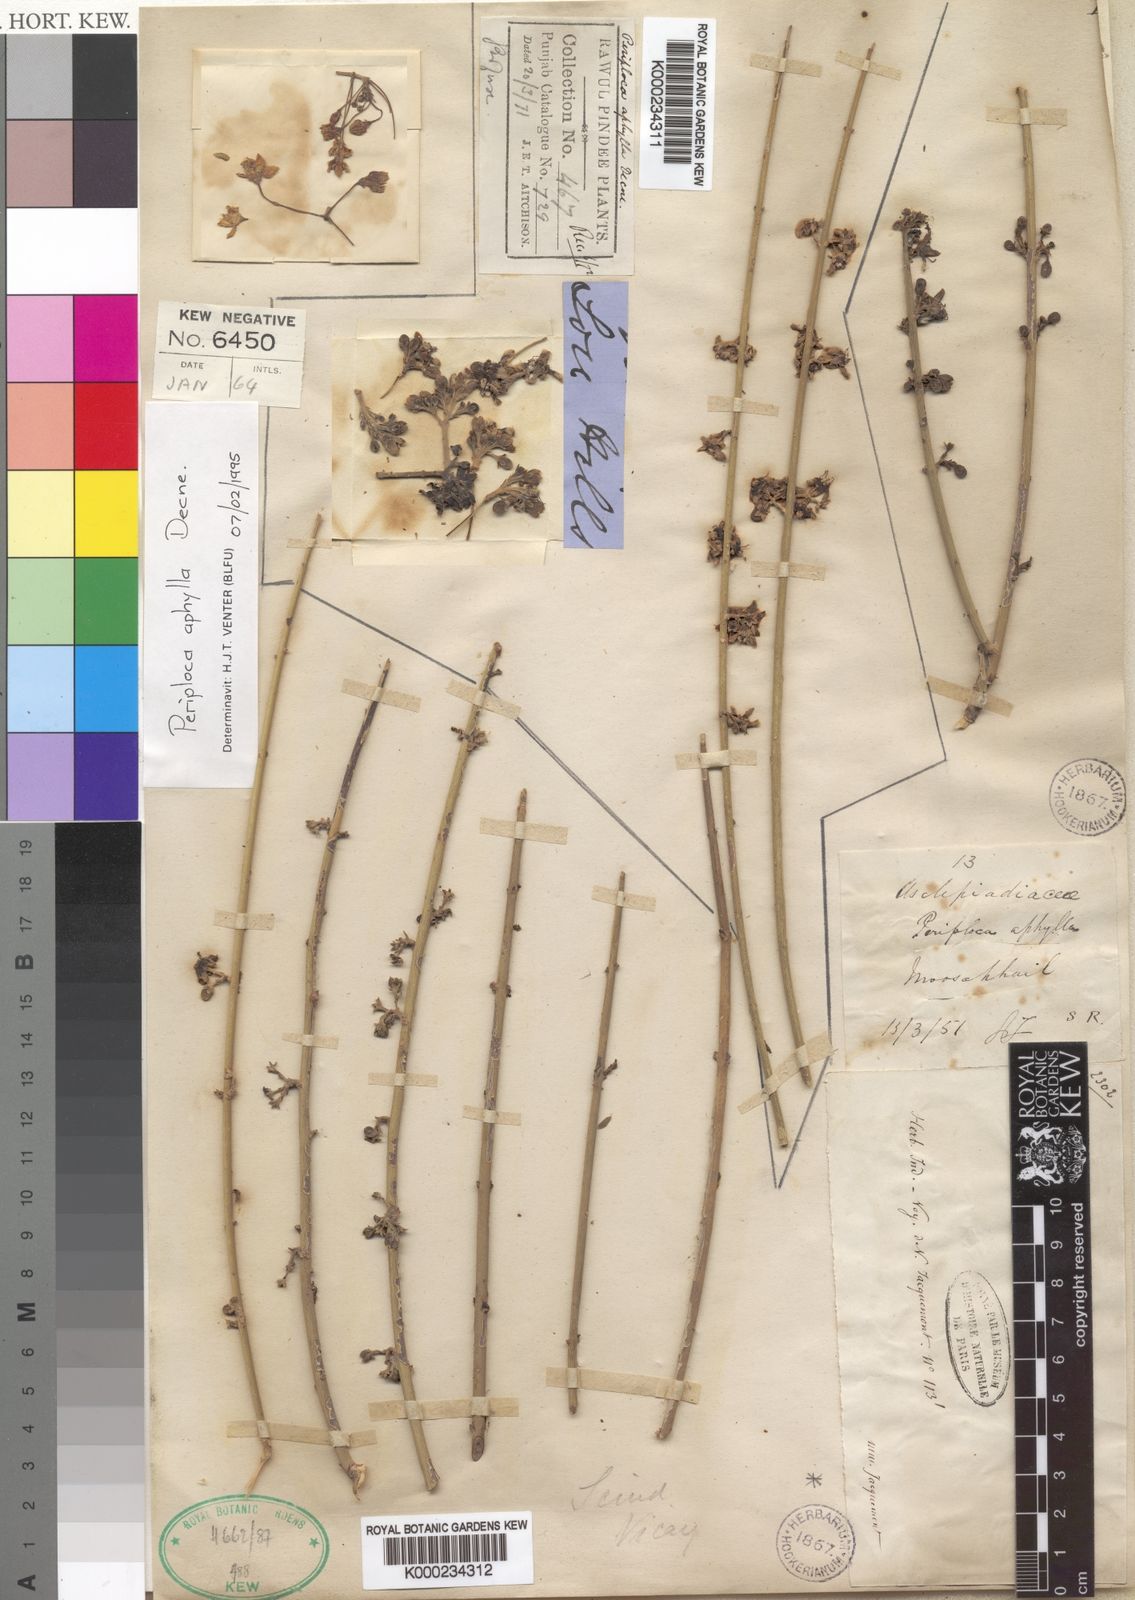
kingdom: Plantae
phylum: Tracheophyta
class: Magnoliopsida
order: Gentianales
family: Apocynaceae
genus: Periploca
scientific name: Periploca aphylla
